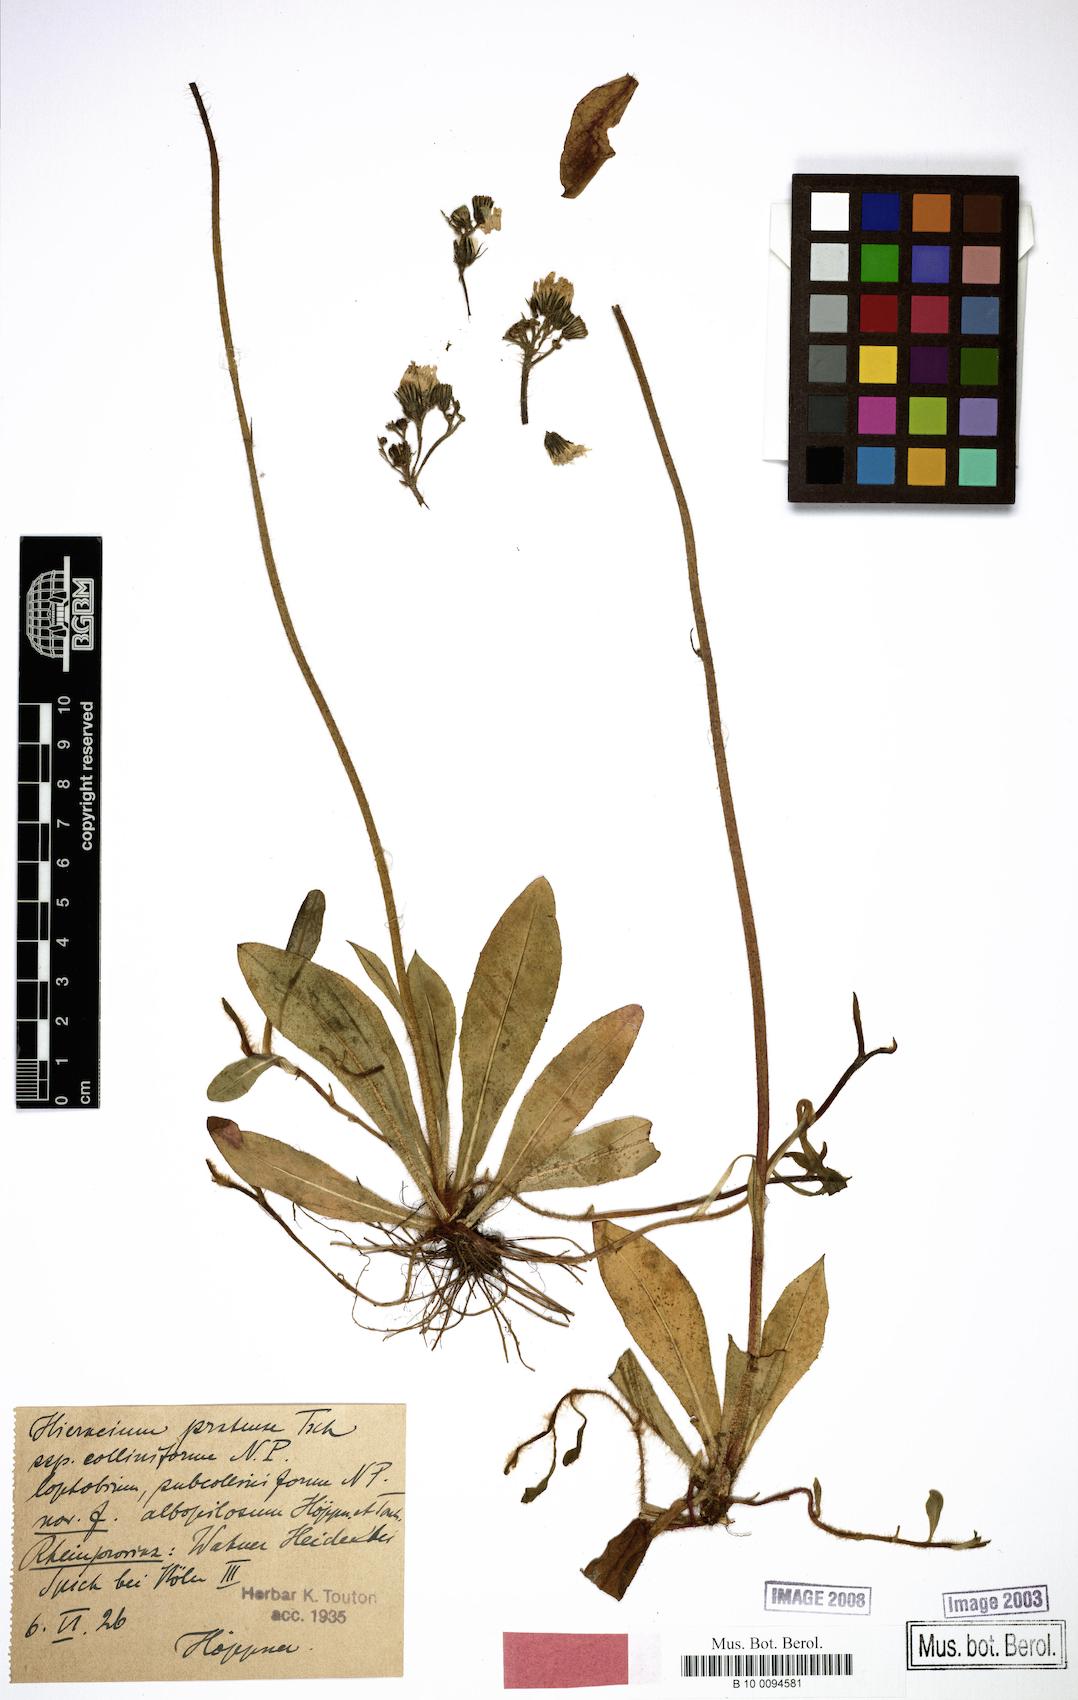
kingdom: Plantae
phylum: Tracheophyta
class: Magnoliopsida
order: Asterales
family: Asteraceae
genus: Pilosella
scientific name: Pilosella caespitosa
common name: Yellow fox-and-cubs
